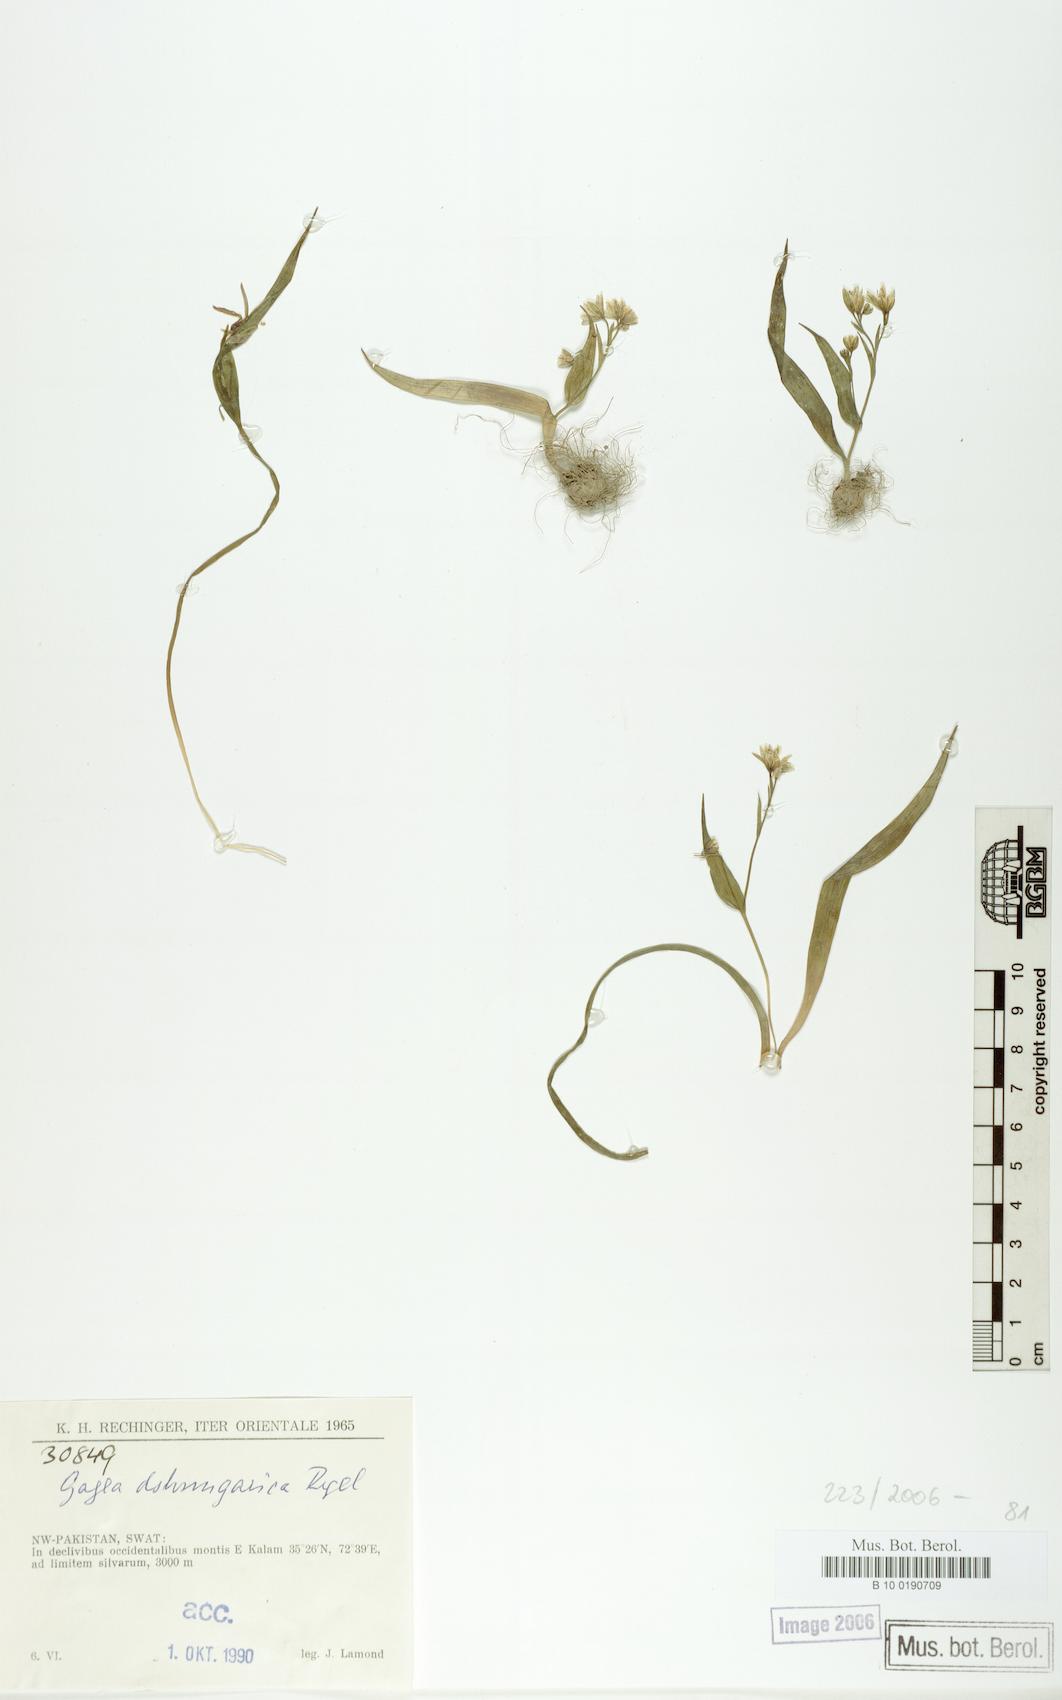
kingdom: Plantae
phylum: Tracheophyta
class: Liliopsida
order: Liliales
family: Liliaceae
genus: Gagea
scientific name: Gagea dschungarica
